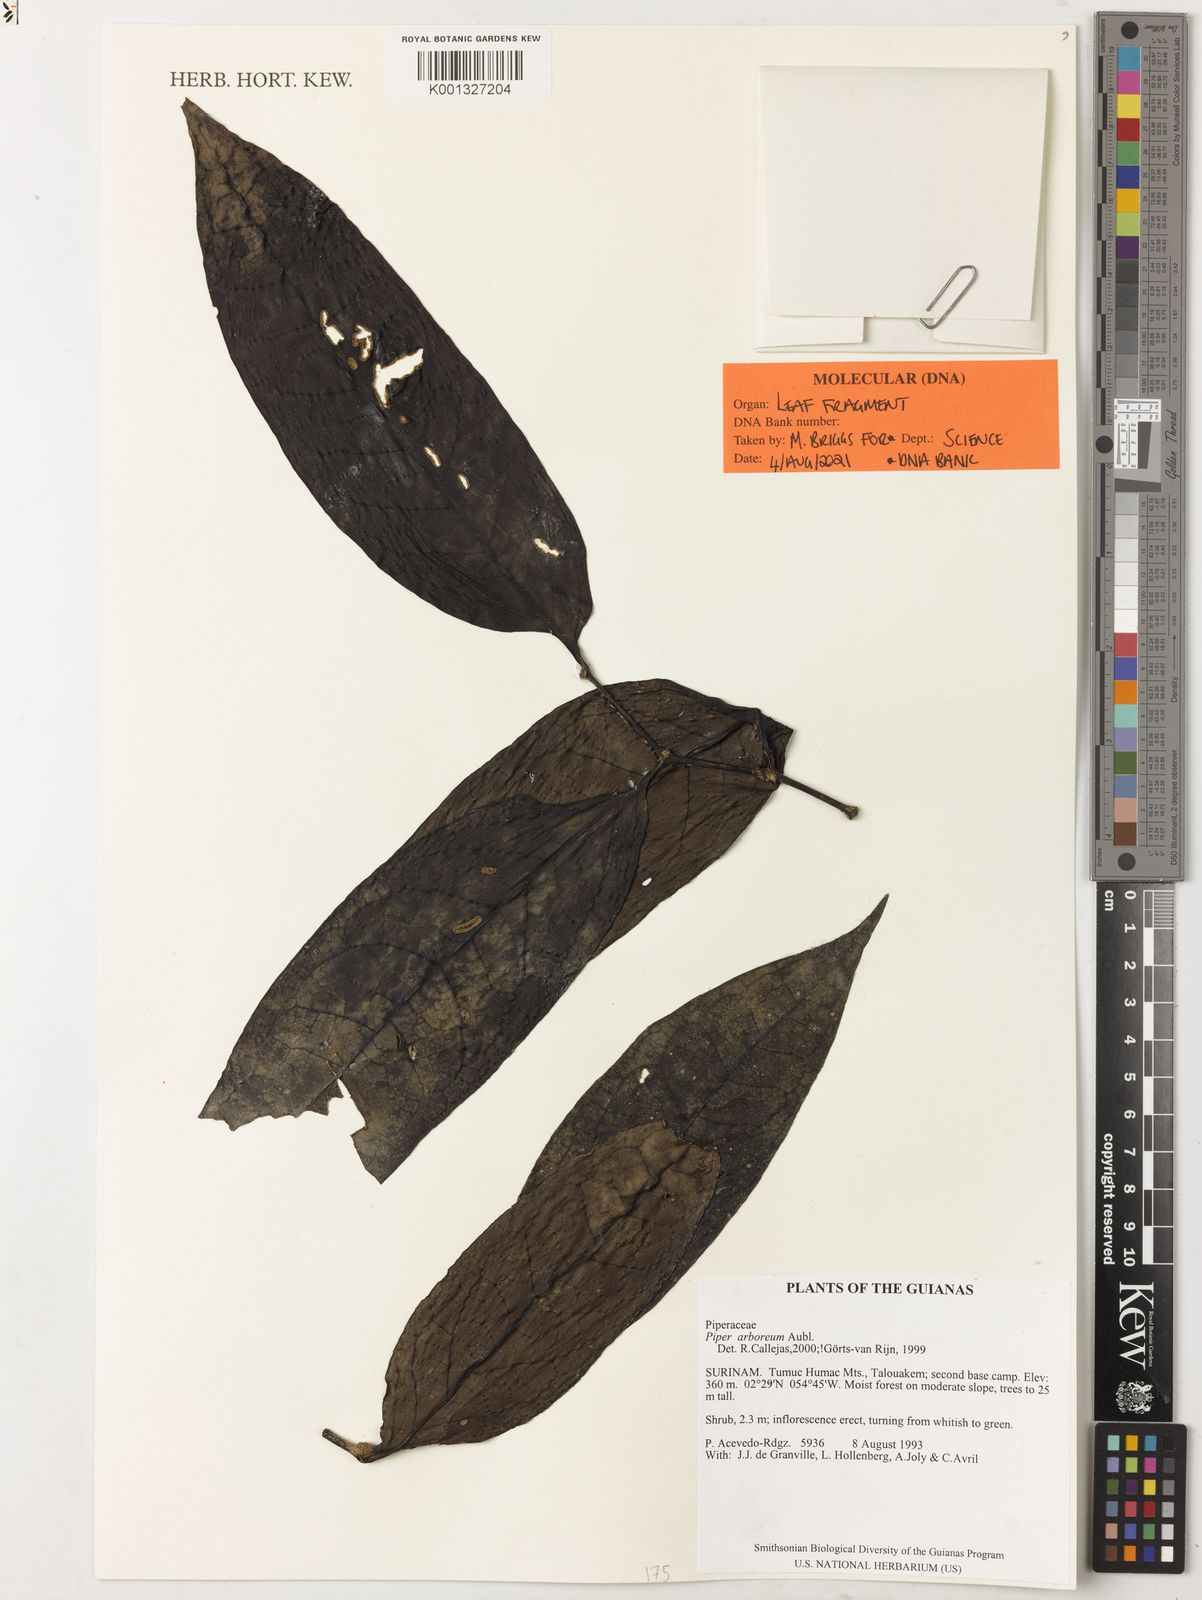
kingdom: Plantae
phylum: Tracheophyta
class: Magnoliopsida
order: Piperales
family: Piperaceae
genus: Piper
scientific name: Piper arboreum
